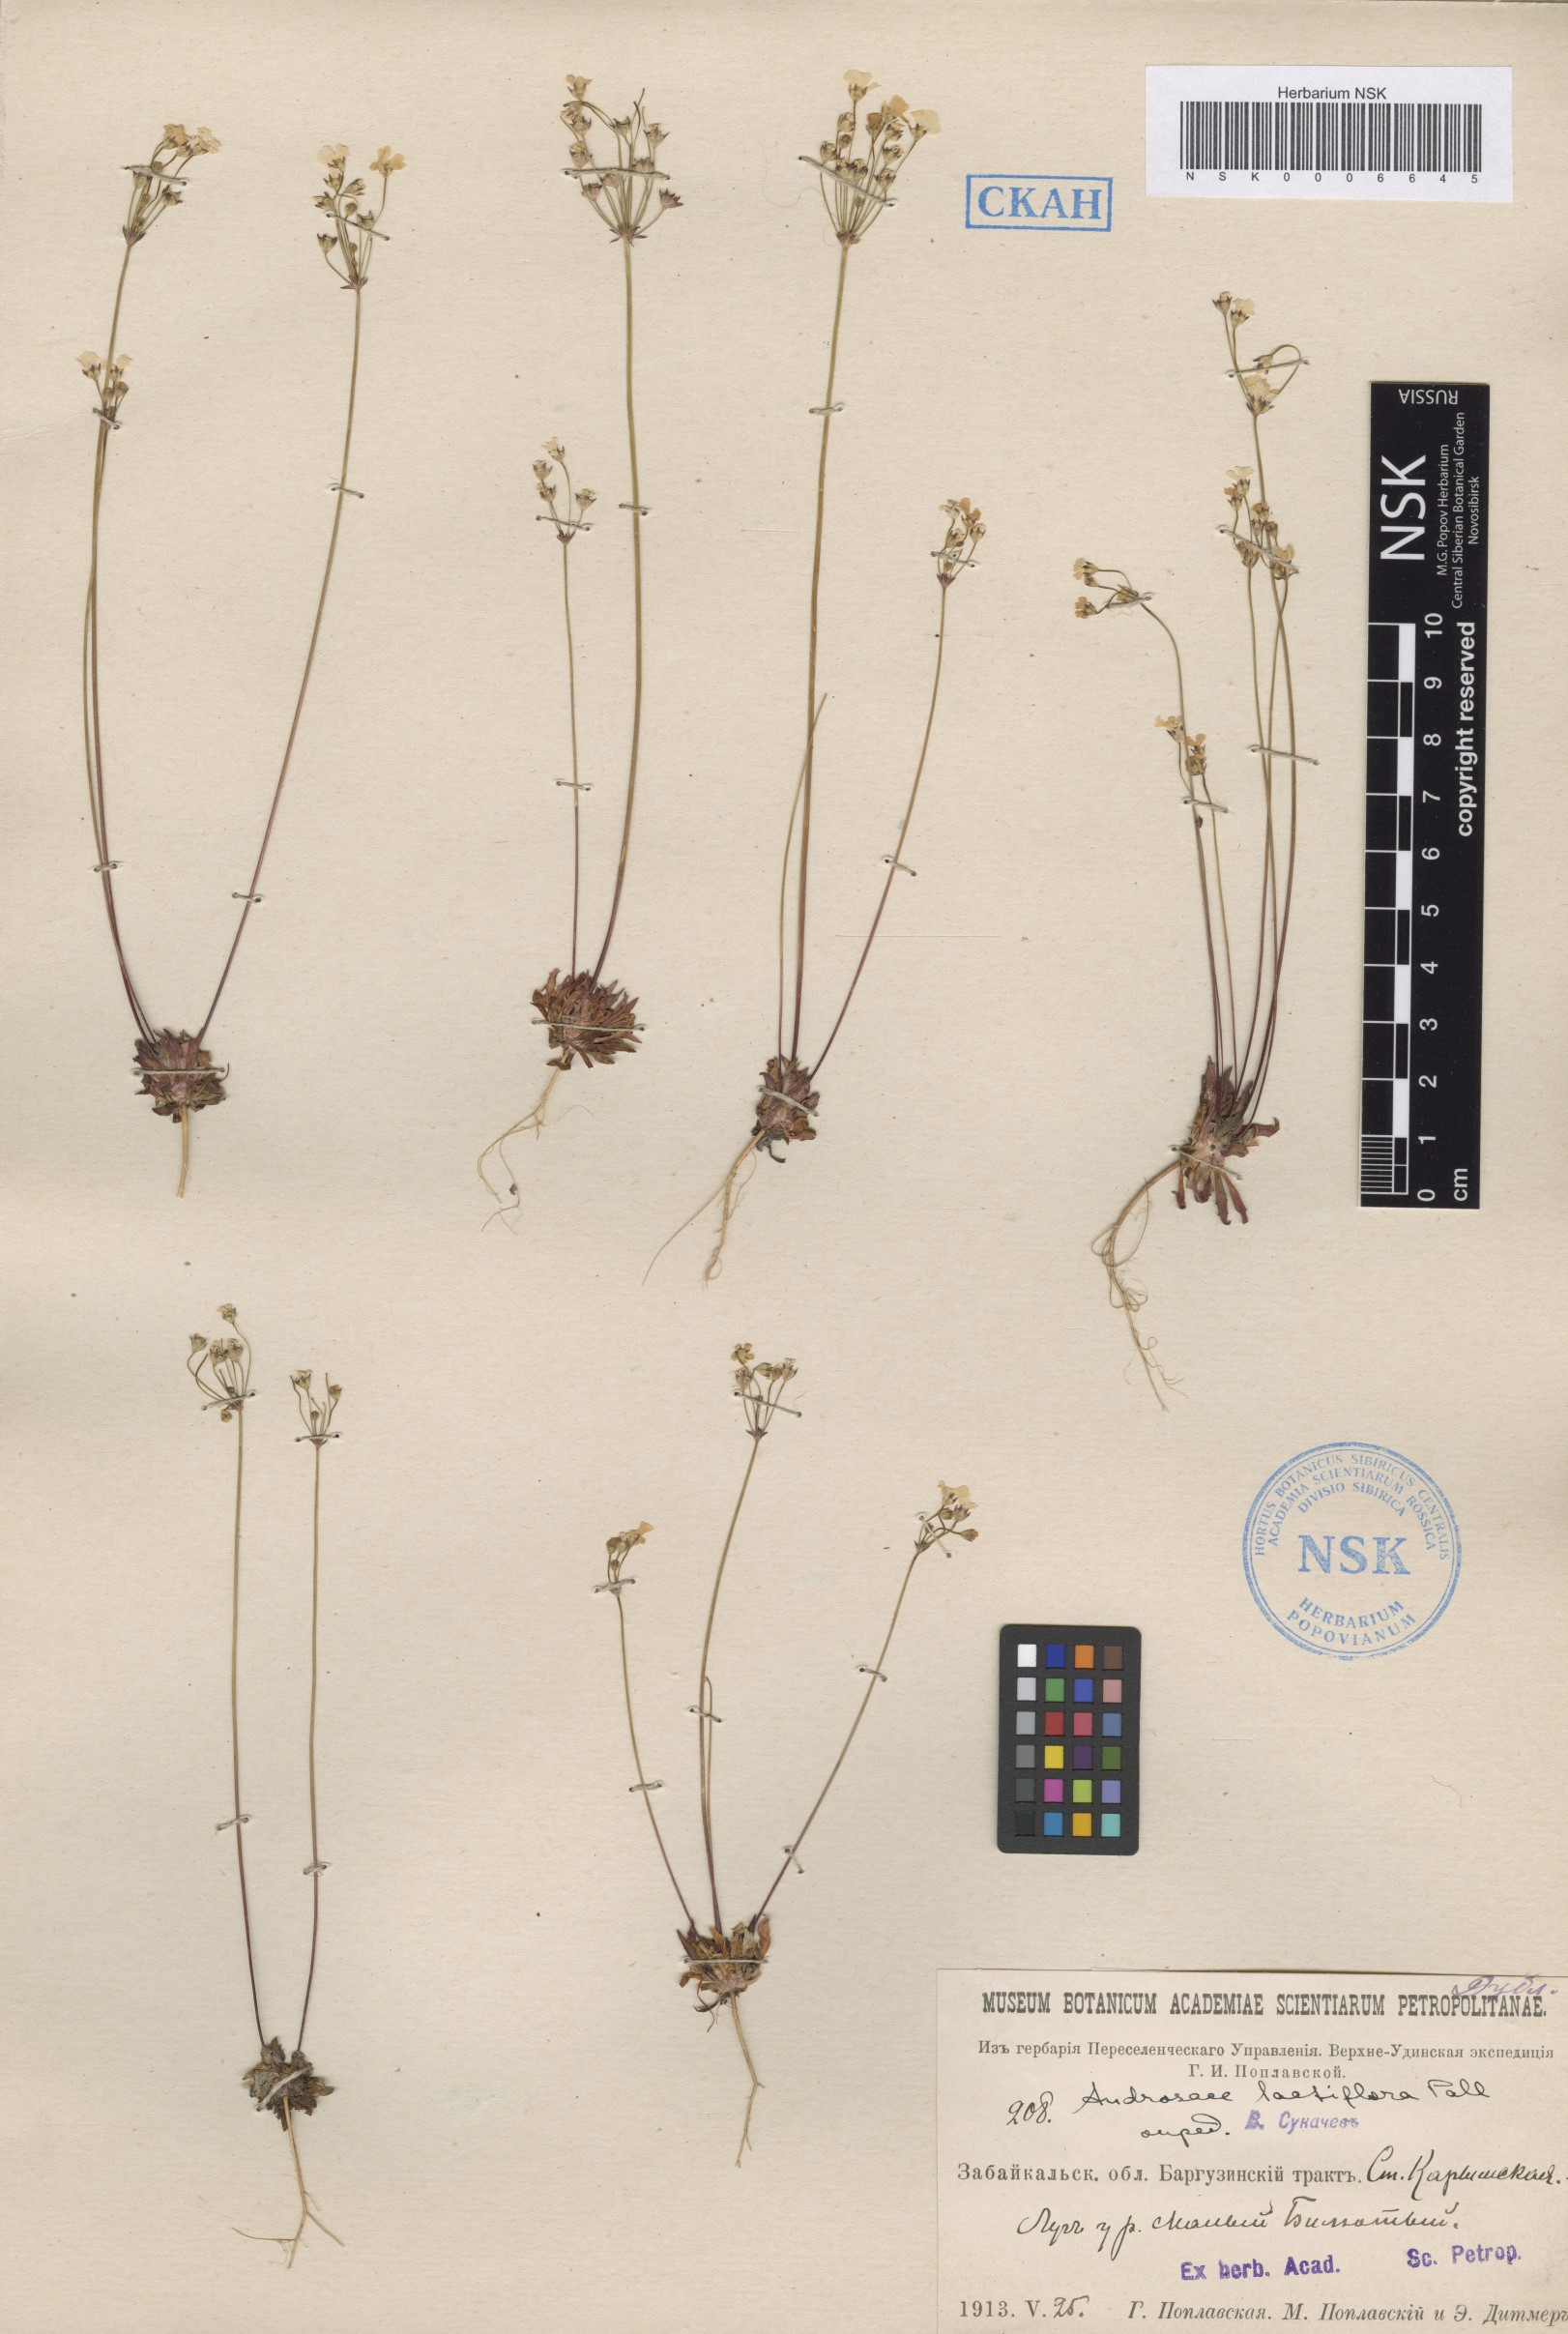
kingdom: Plantae
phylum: Tracheophyta
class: Magnoliopsida
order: Ericales
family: Primulaceae
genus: Androsace
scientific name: Androsace lactiflora
